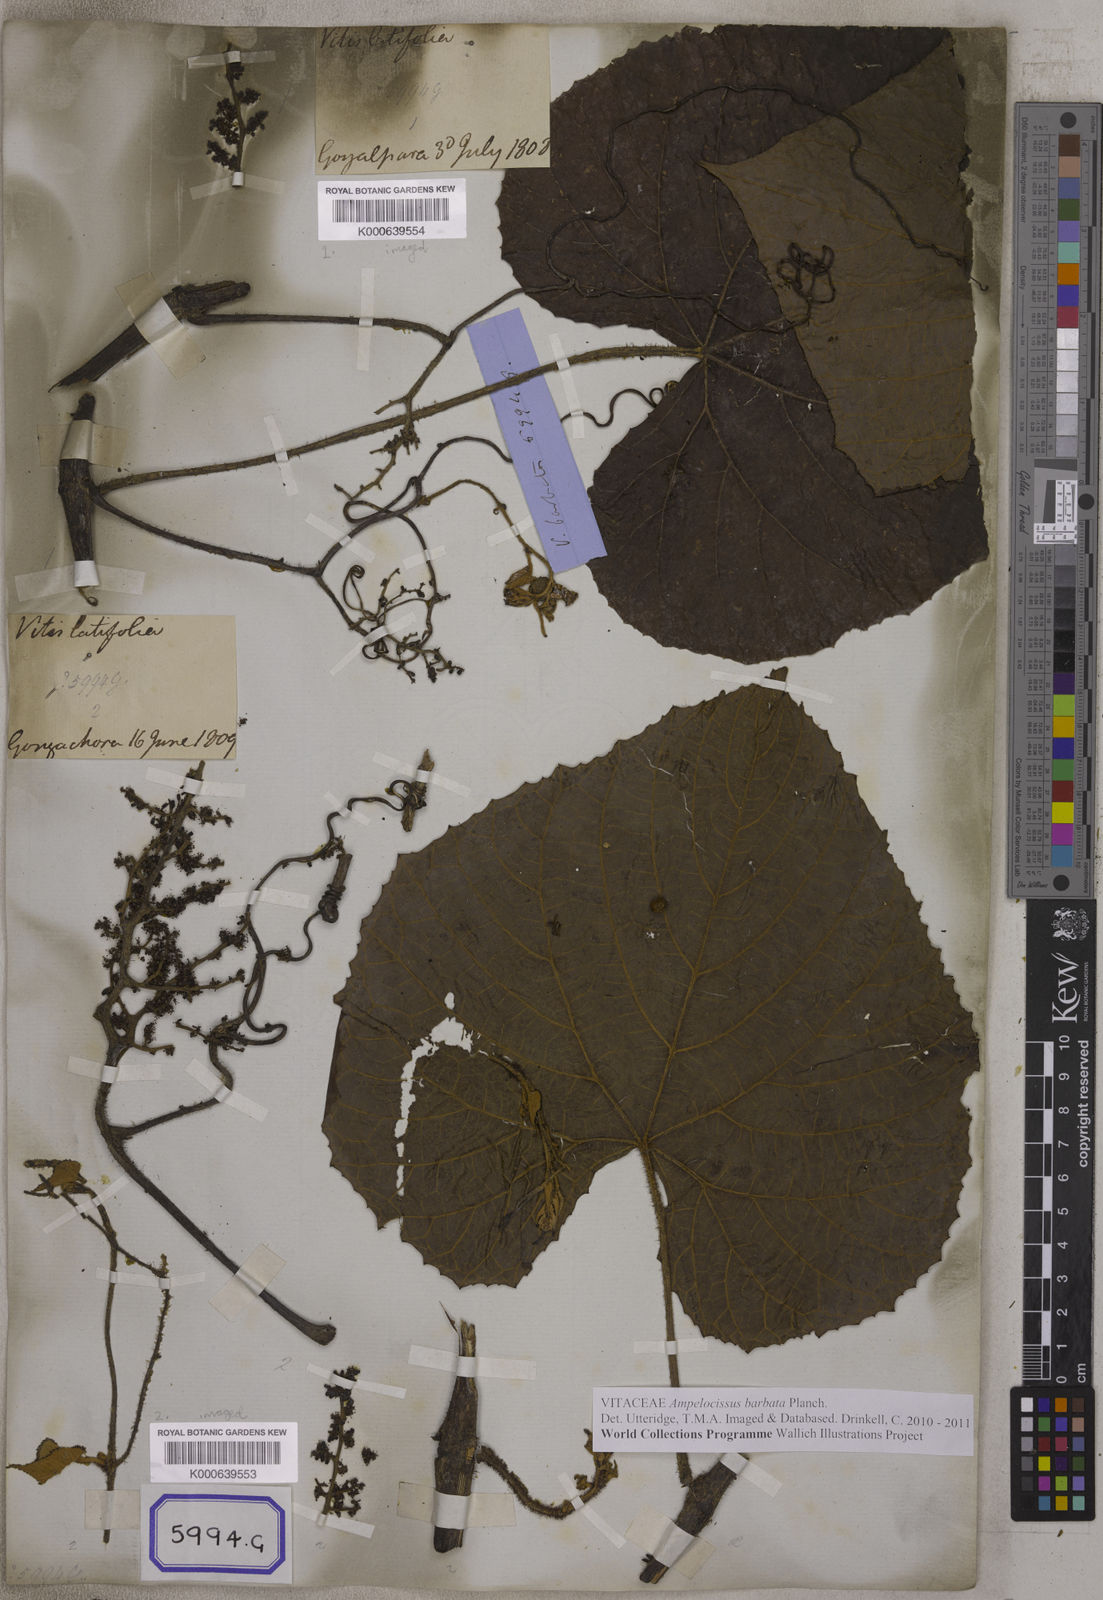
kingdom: Plantae
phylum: Tracheophyta
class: Magnoliopsida
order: Vitales
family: Vitaceae
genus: Ampelocissus
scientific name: Ampelocissus latifolia
